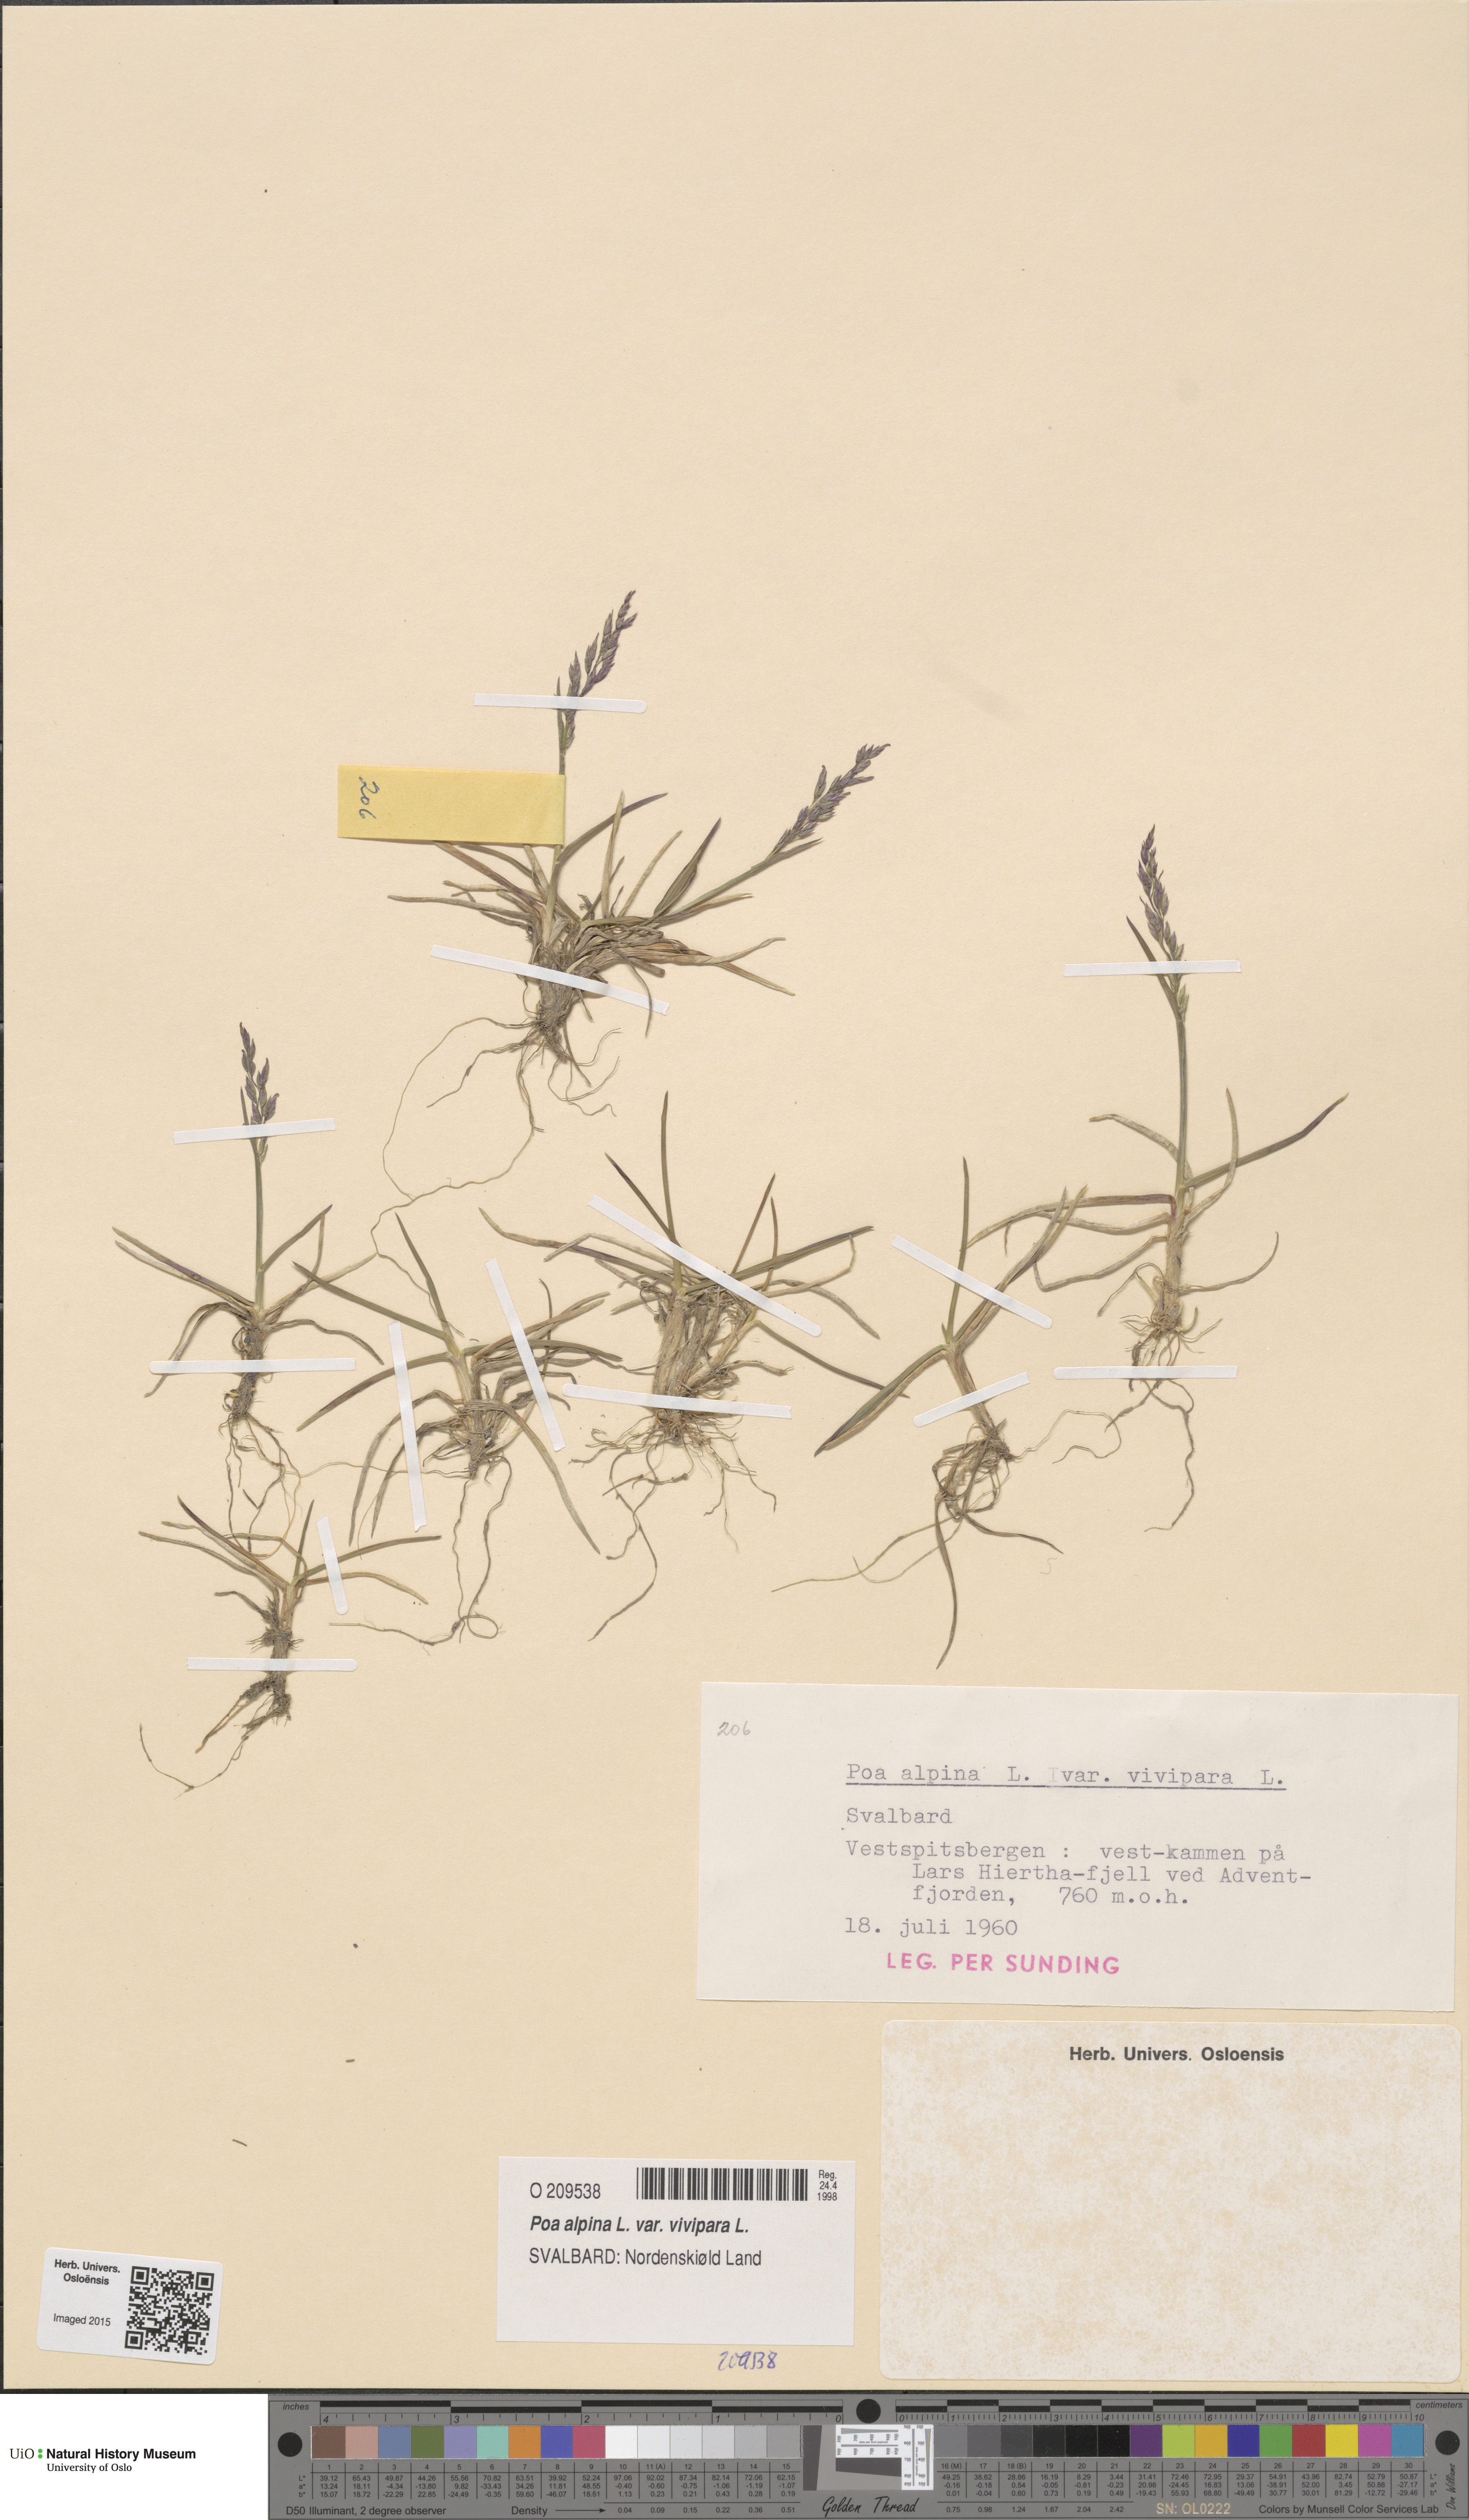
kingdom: Plantae
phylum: Tracheophyta
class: Liliopsida
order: Poales
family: Poaceae
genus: Poa
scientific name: Poa alpina
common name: Alpine bluegrass
